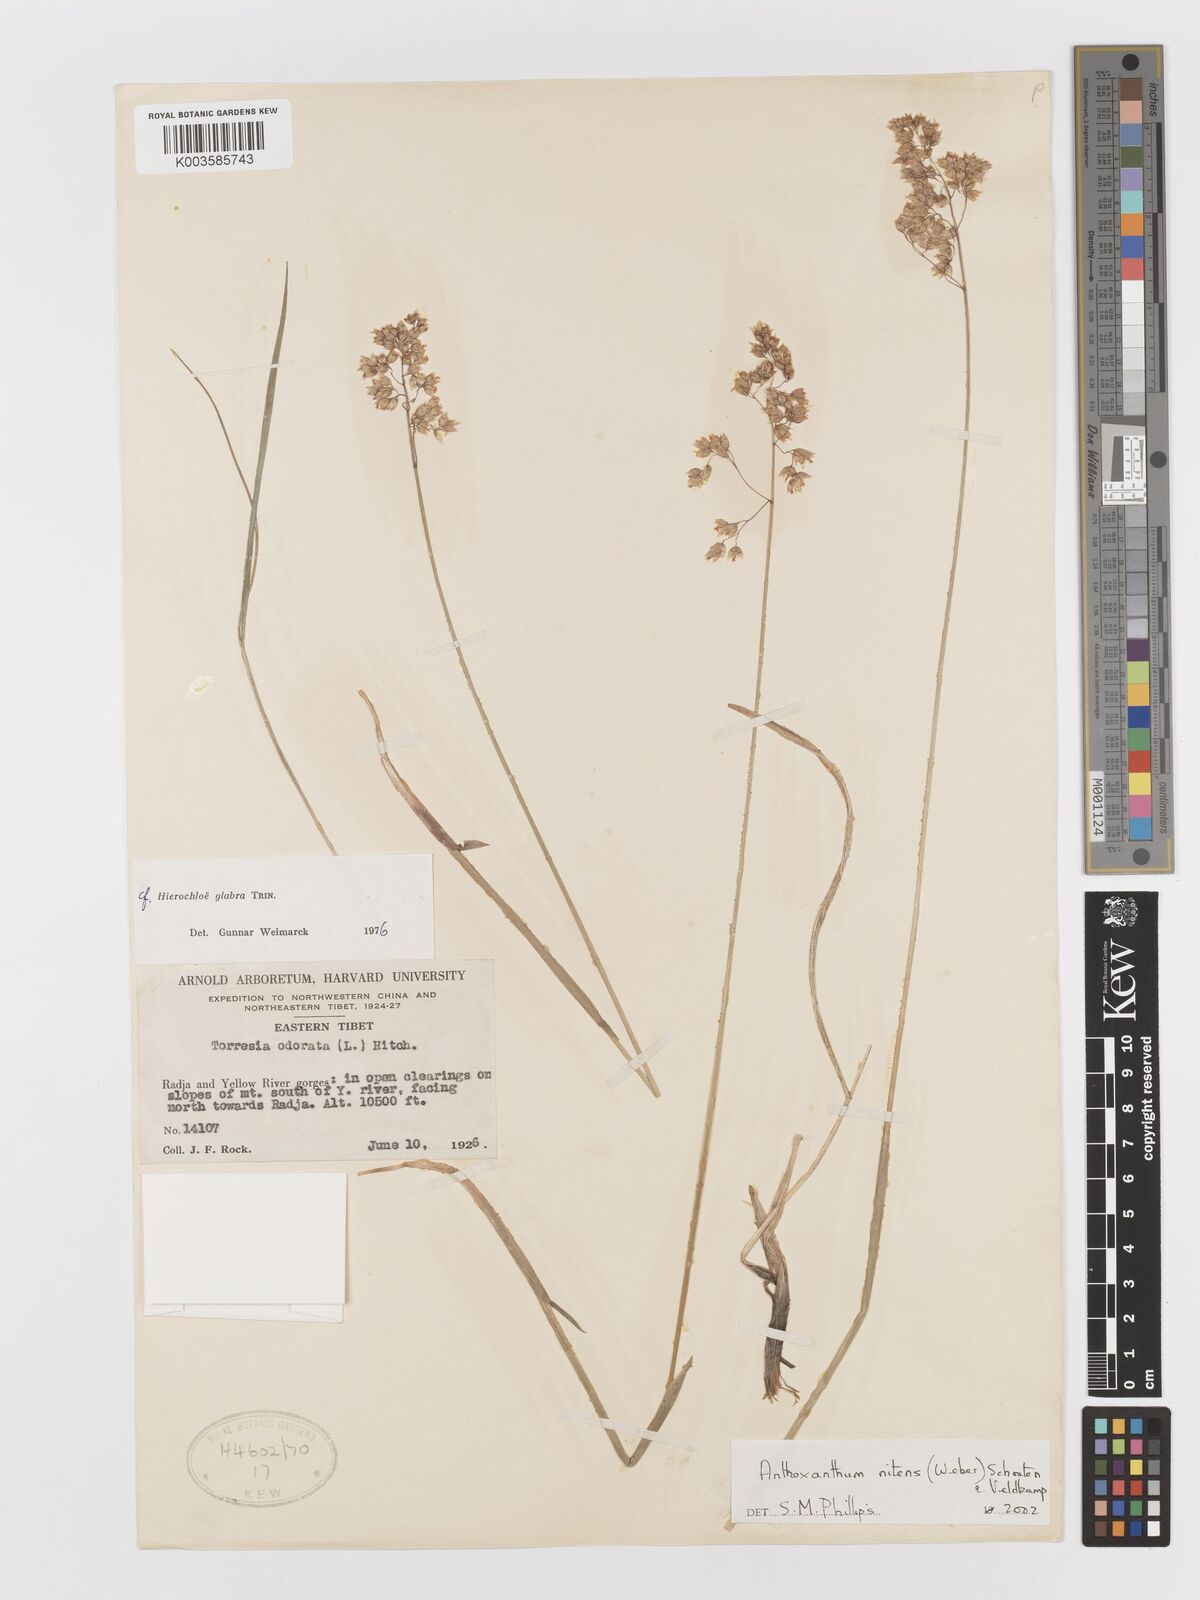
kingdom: Plantae
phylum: Tracheophyta
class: Liliopsida
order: Poales
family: Poaceae
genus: Anthoxanthum
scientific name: Anthoxanthum nitens
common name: Holy grass
